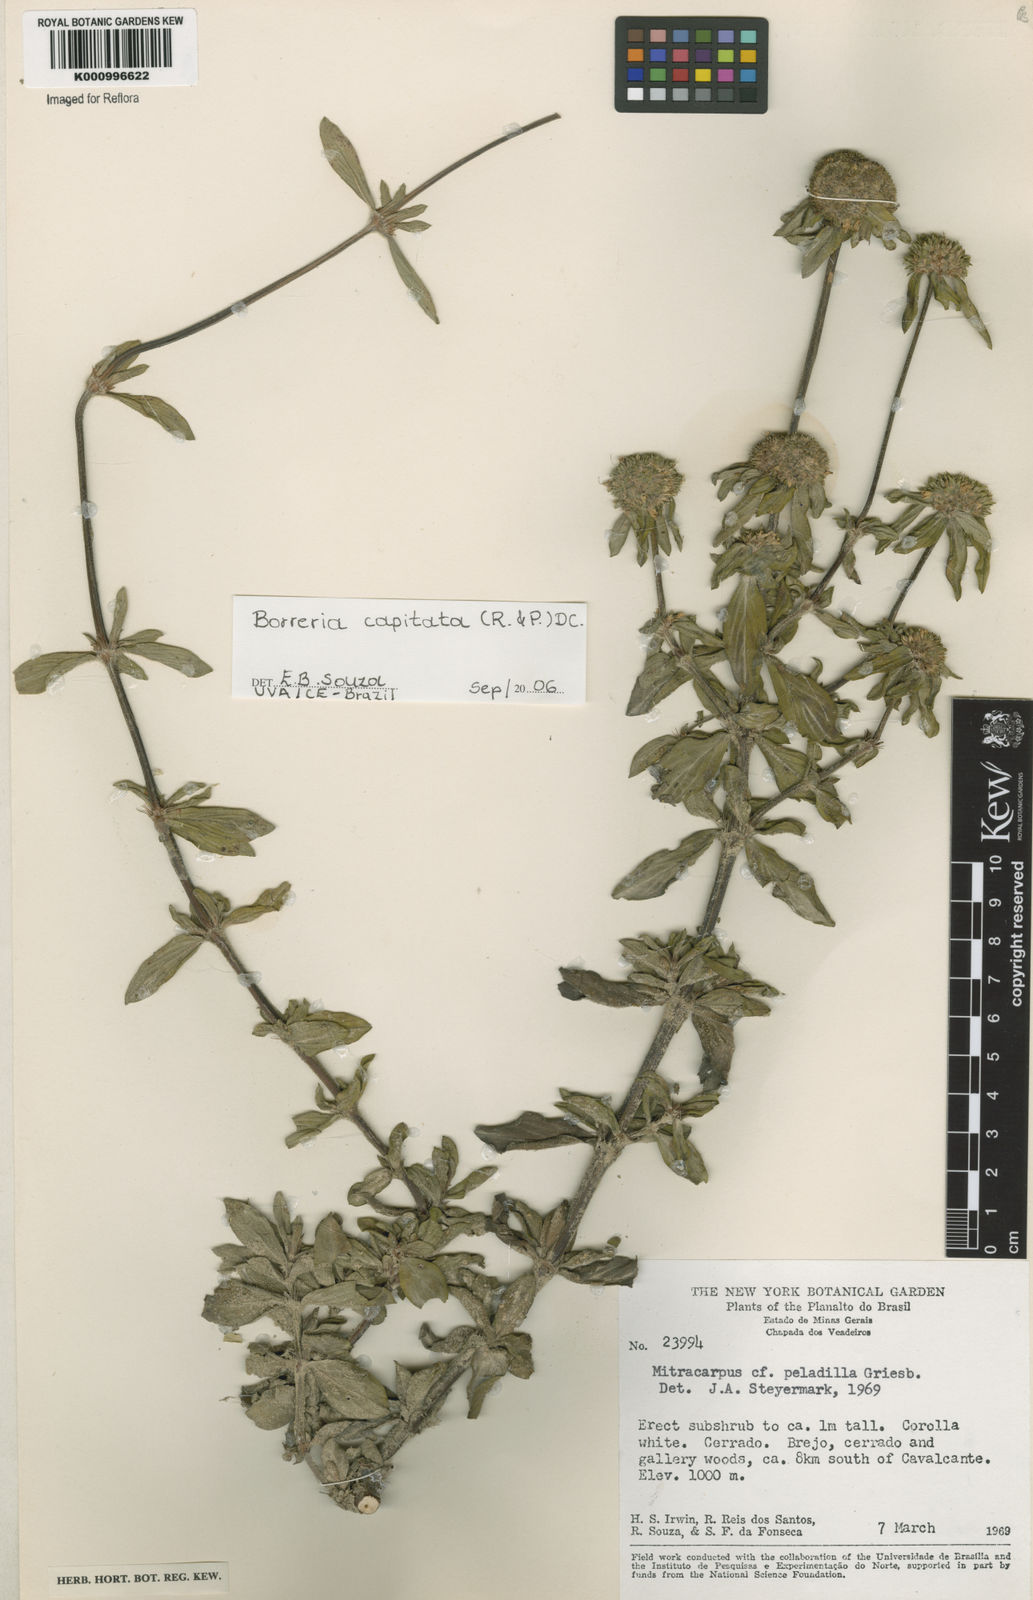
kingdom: Plantae
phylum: Tracheophyta
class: Magnoliopsida
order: Gentianales
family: Rubiaceae
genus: Spermacoce
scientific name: Spermacoce capitata
